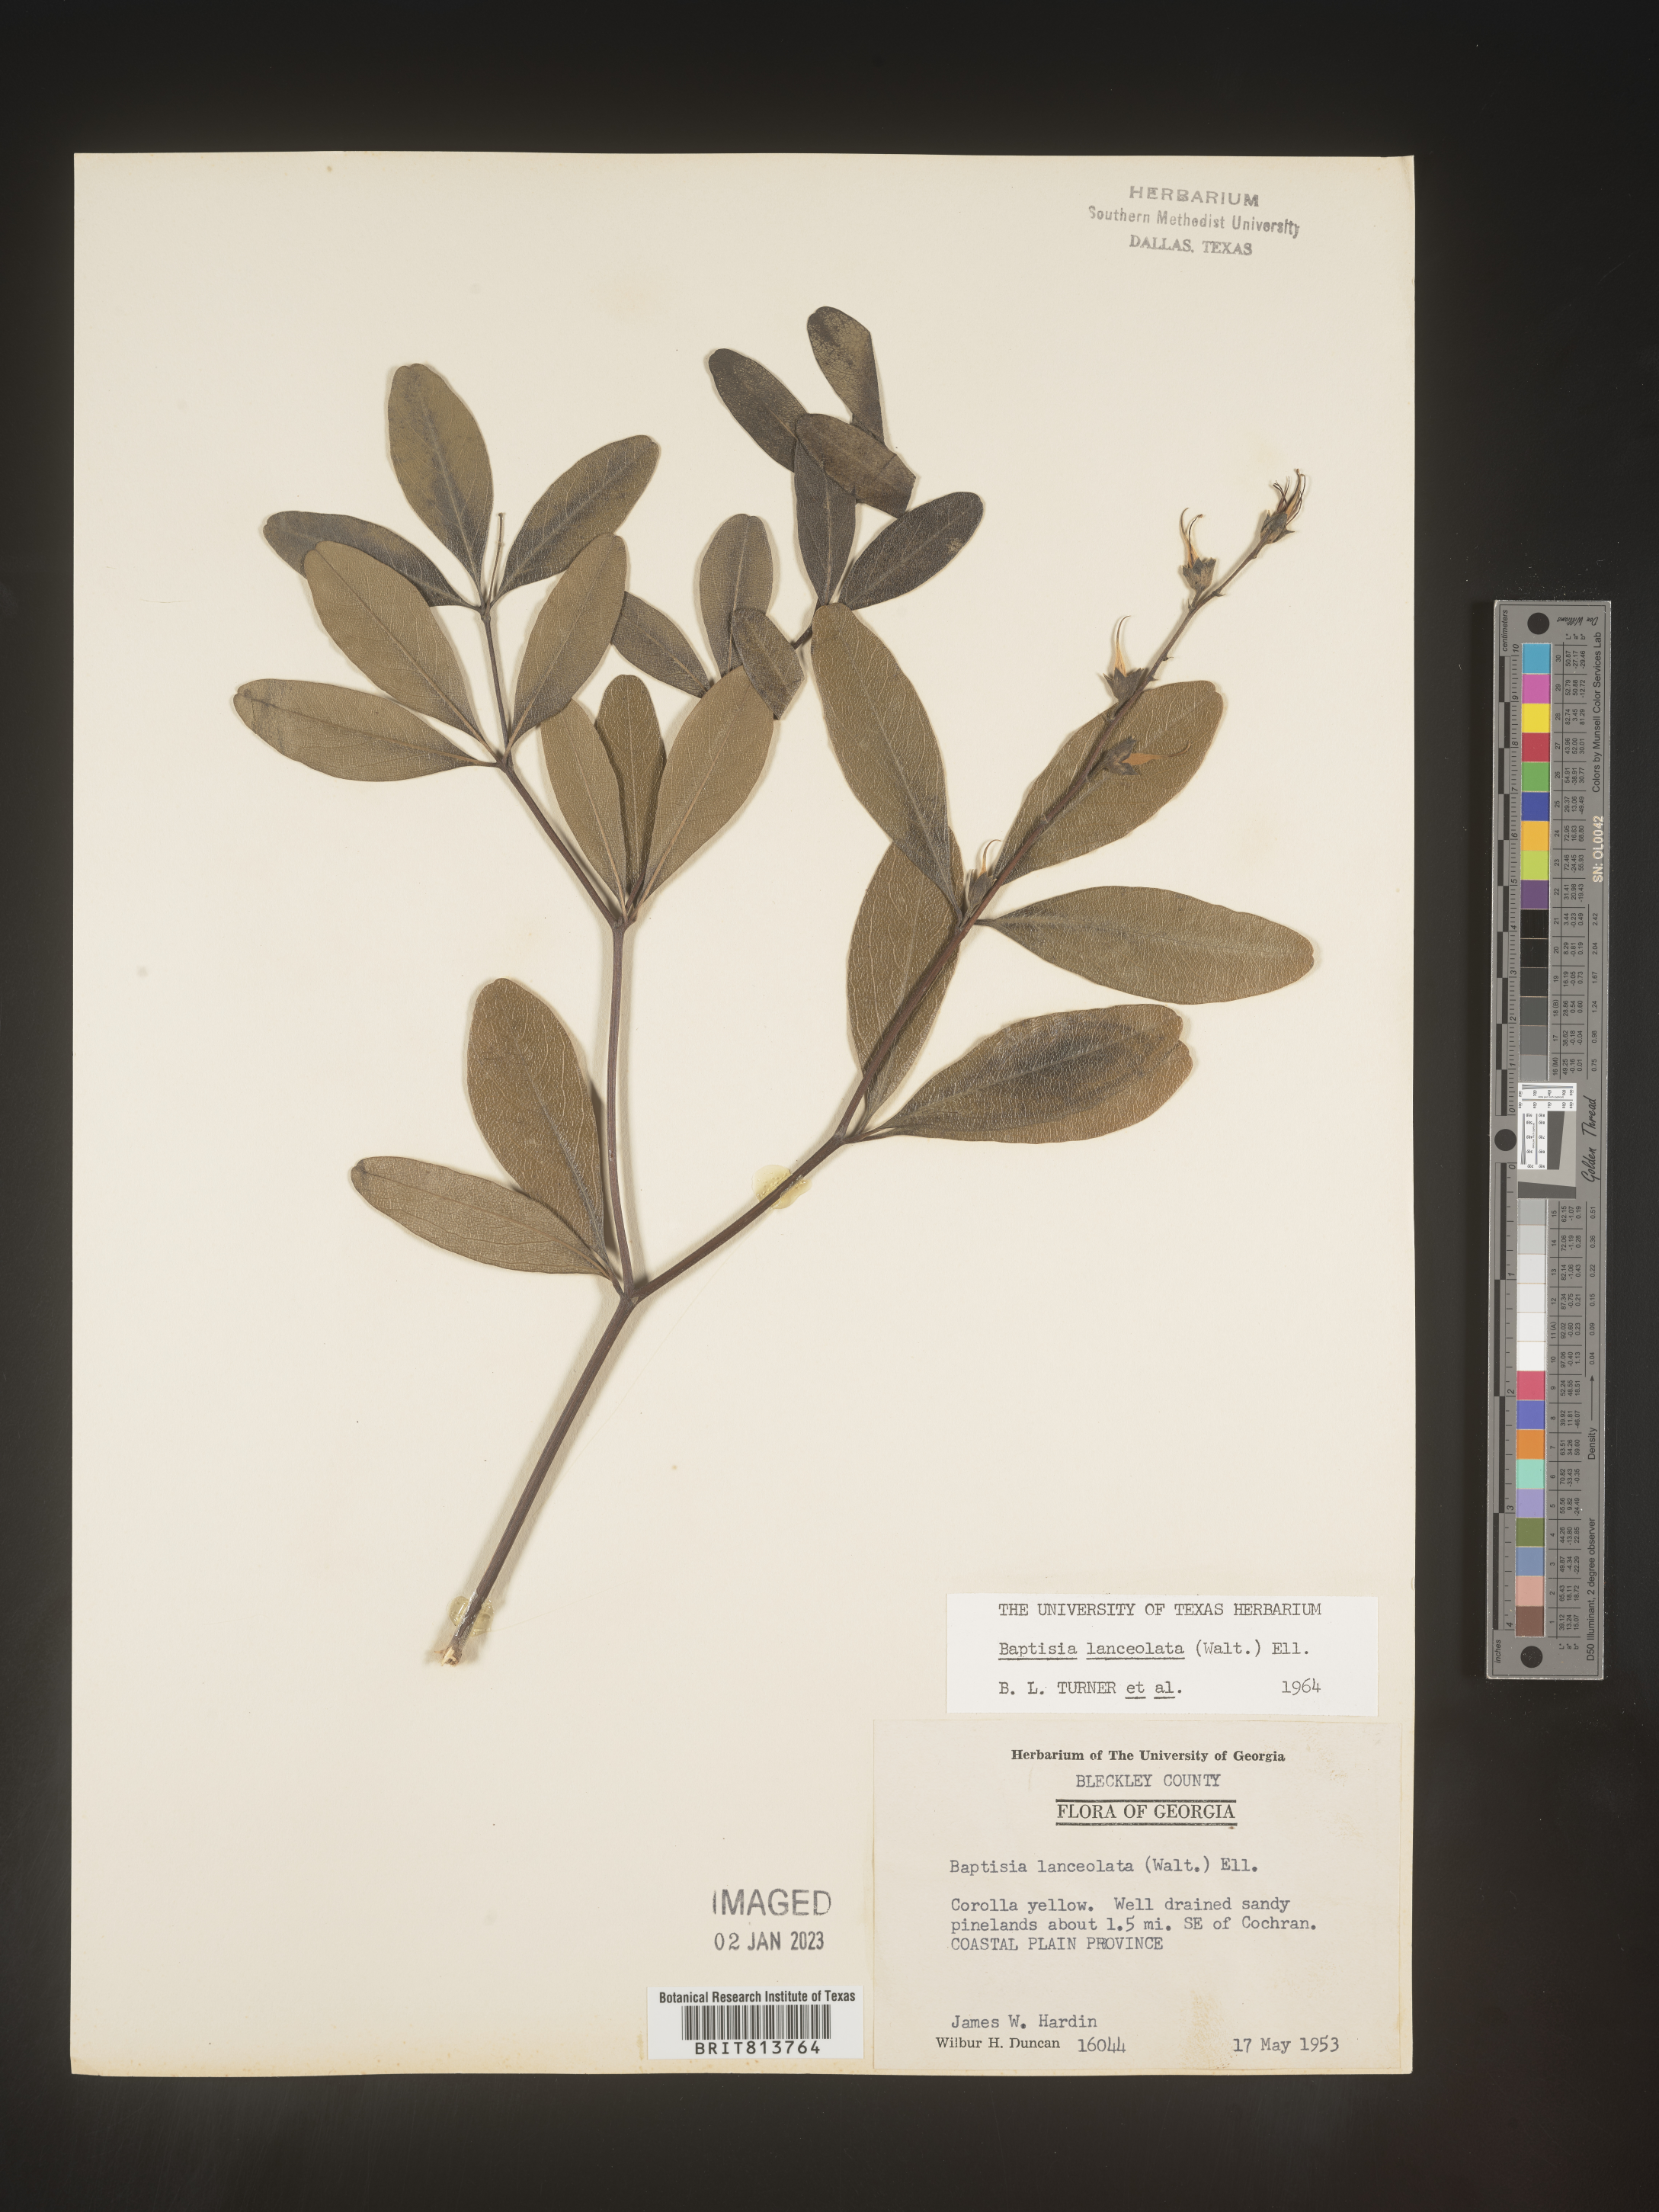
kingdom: Plantae
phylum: Tracheophyta
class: Magnoliopsida
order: Fabales
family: Fabaceae
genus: Baptisia
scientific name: Baptisia lanceolata
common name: Gopherweed
